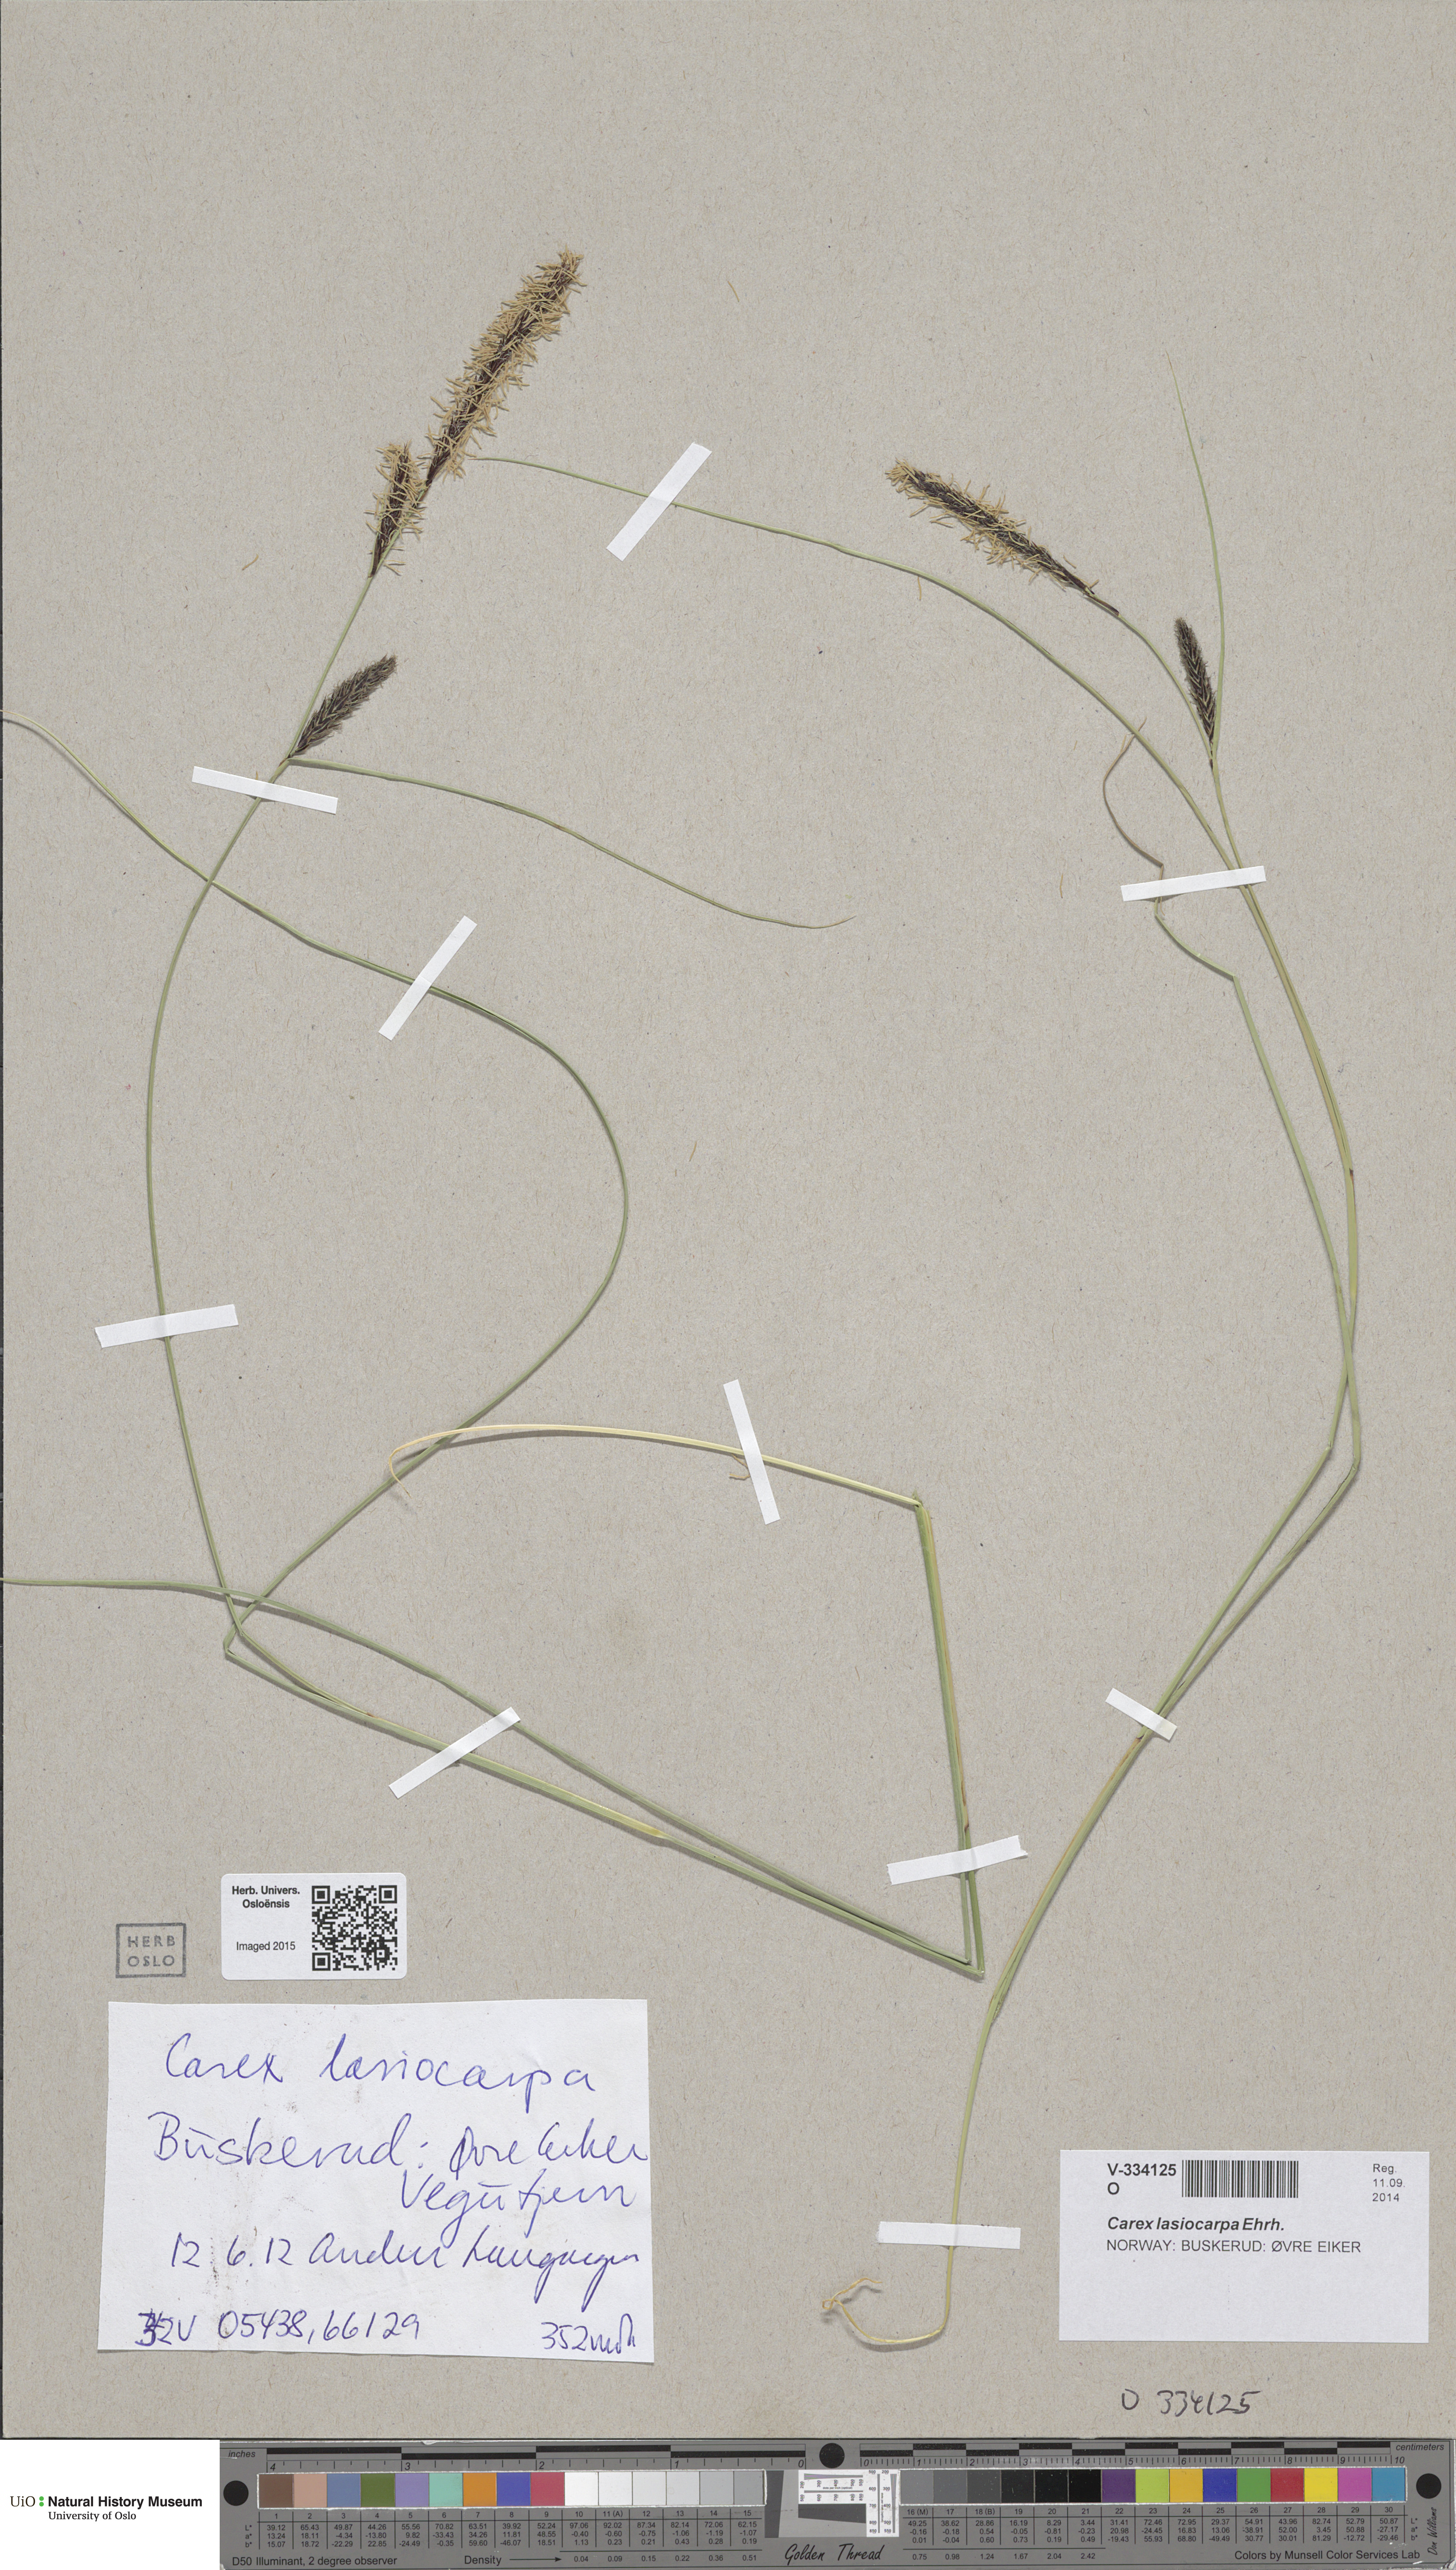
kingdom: Plantae
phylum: Tracheophyta
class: Liliopsida
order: Poales
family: Cyperaceae
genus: Carex
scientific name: Carex lasiocarpa
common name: Slender sedge
